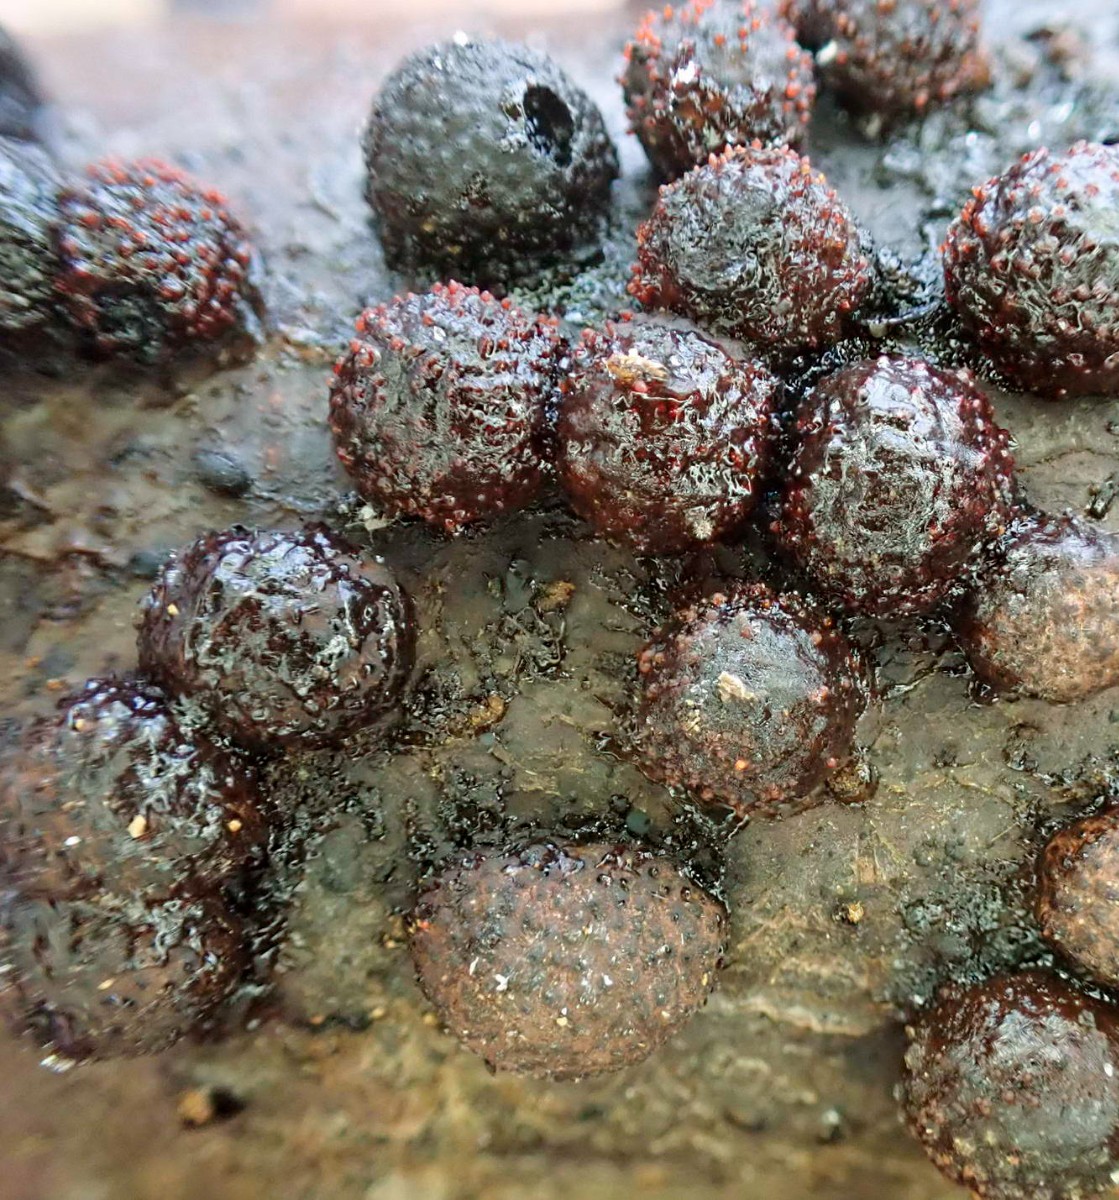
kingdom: Fungi
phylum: Ascomycota
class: Sordariomycetes
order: Hypocreales
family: Nectriaceae
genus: Cosmospora
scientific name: Cosmospora arxii
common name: kuljordbær-cinnobersvamp
